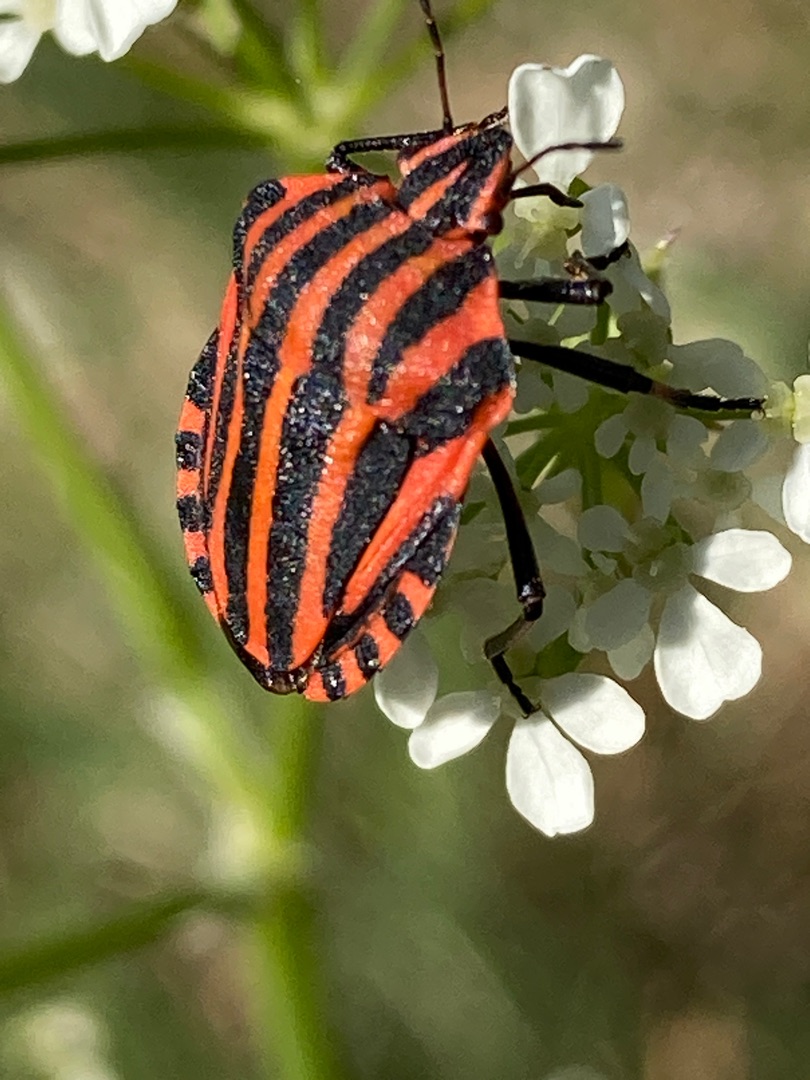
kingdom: Animalia
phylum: Arthropoda
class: Insecta
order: Hemiptera
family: Pentatomidae
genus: Graphosoma
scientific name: Graphosoma italicum
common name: Stribetæge
